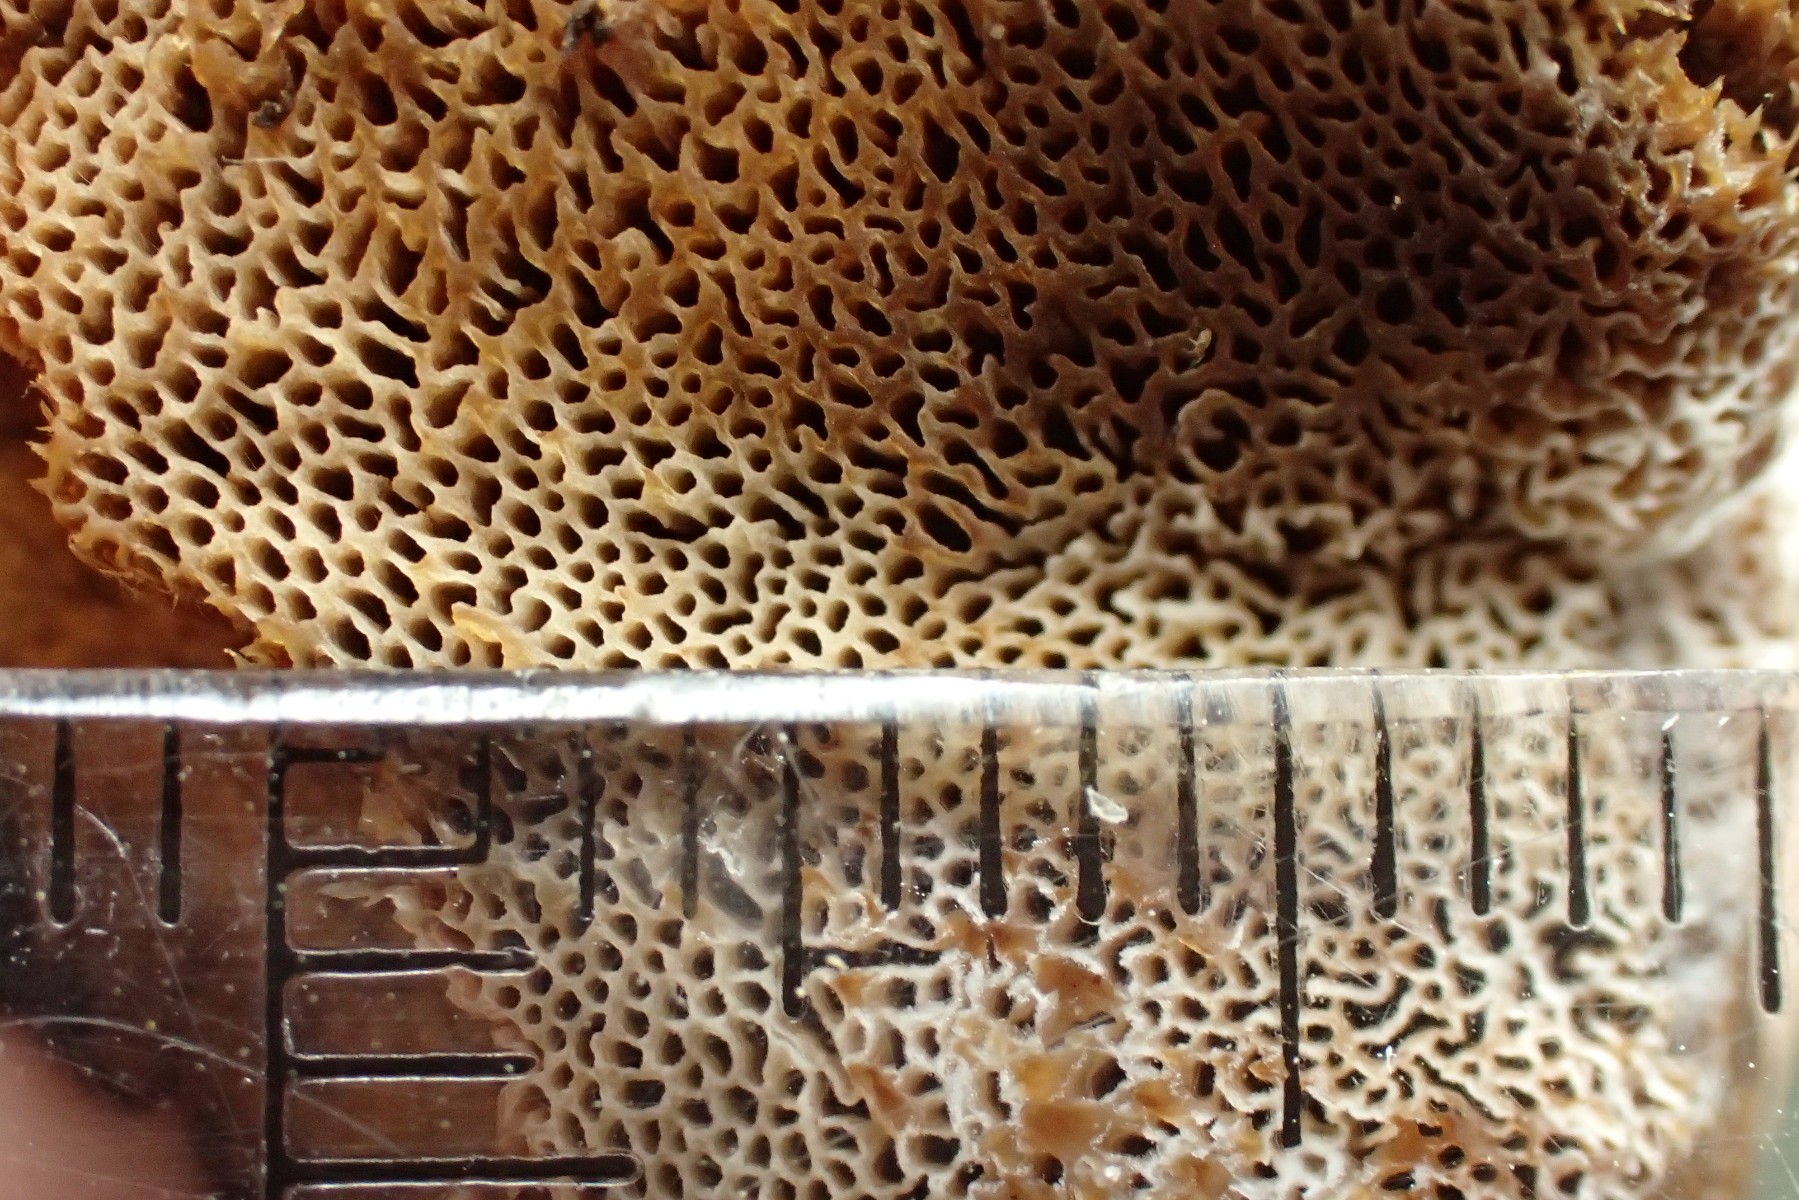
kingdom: Fungi
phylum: Basidiomycota
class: Agaricomycetes
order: Polyporales
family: Ischnodermataceae
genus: Ischnoderma
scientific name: Ischnoderma benzoinum
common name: gran-tjæreporesvamp
